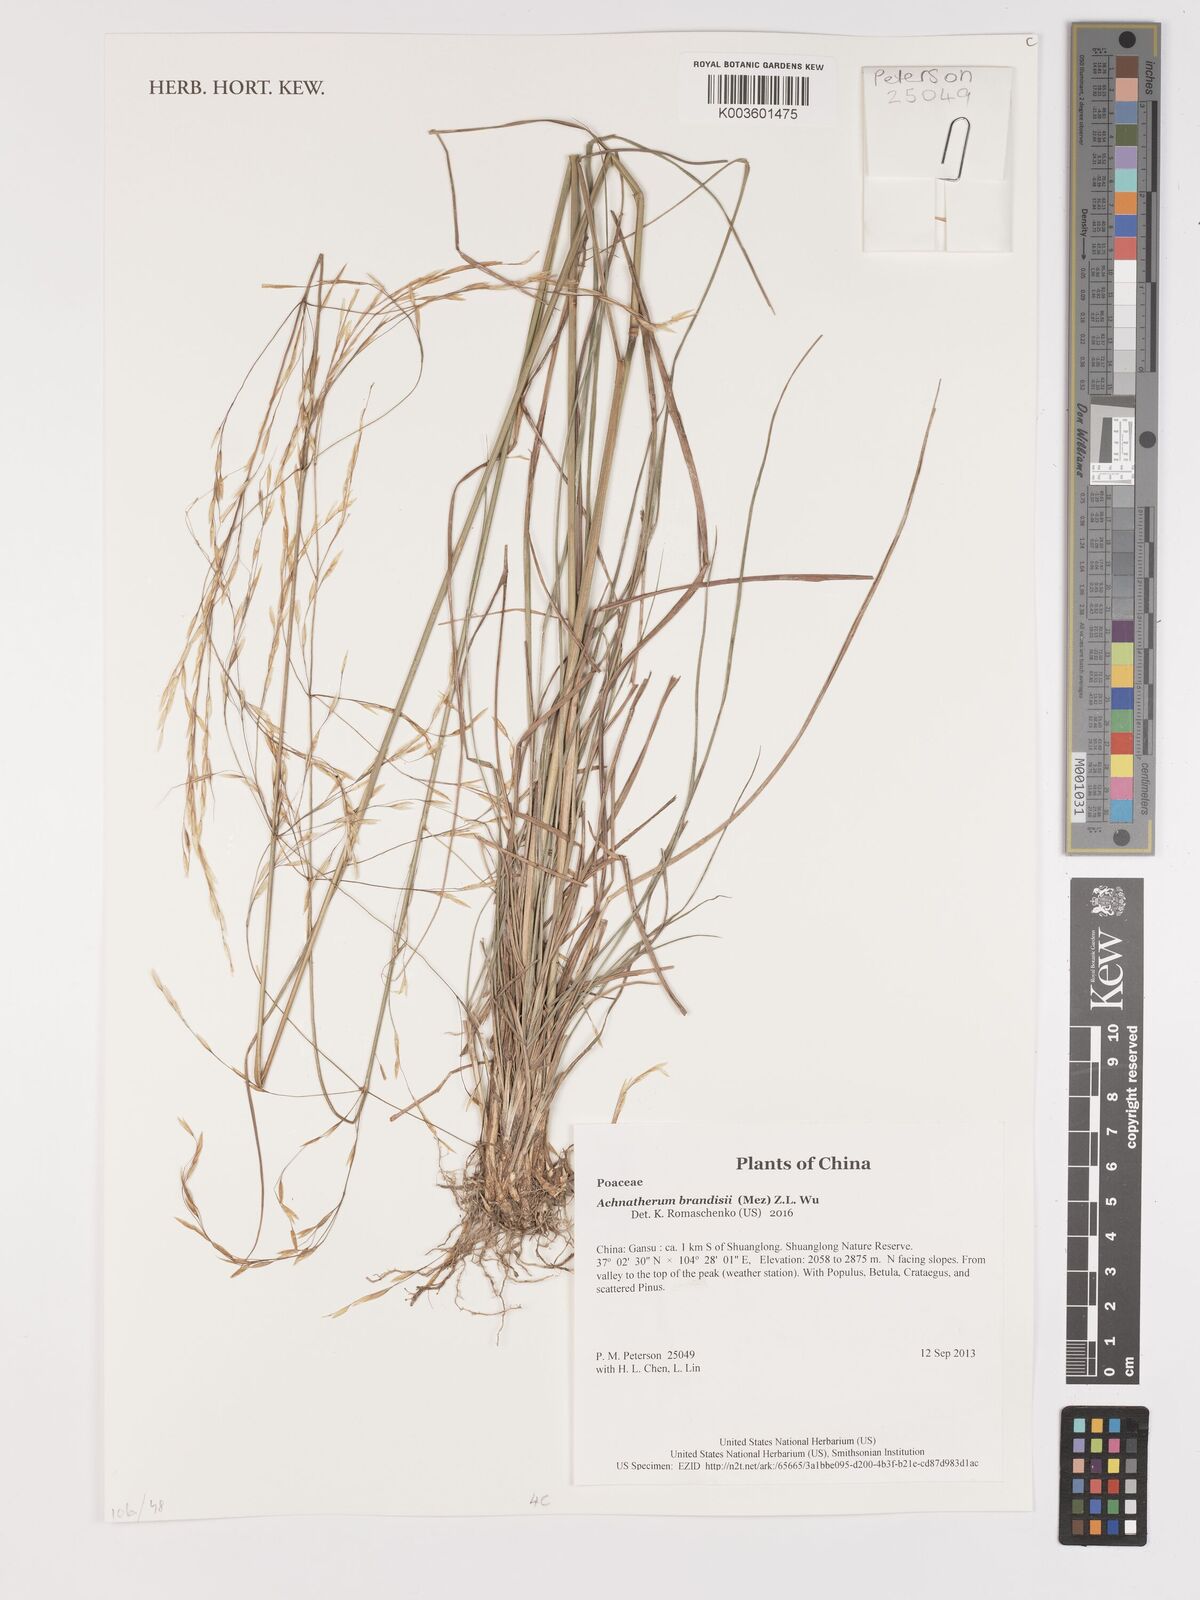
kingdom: Plantae
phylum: Tracheophyta
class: Liliopsida
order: Poales
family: Poaceae
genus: Achnatherum
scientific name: Achnatherum brandisii
